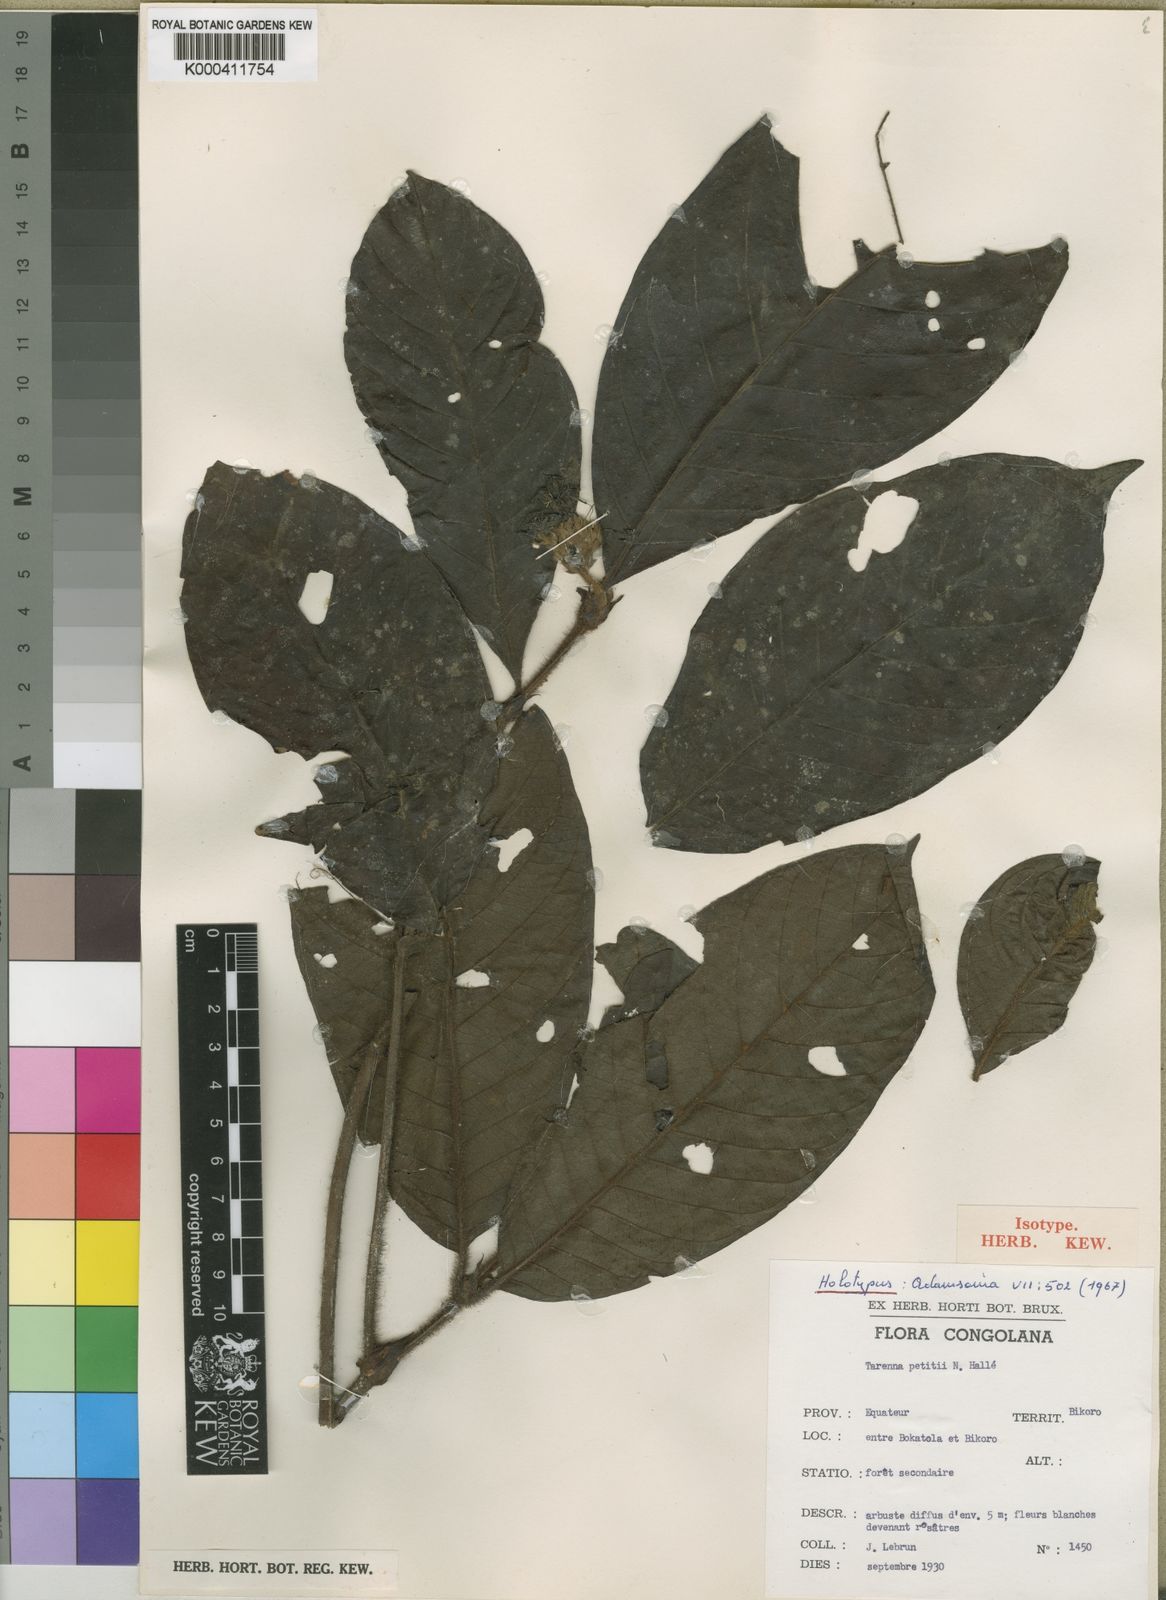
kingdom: Plantae
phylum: Tracheophyta
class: Magnoliopsida
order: Gentianales
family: Rubiaceae
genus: Tarenna
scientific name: Tarenna
